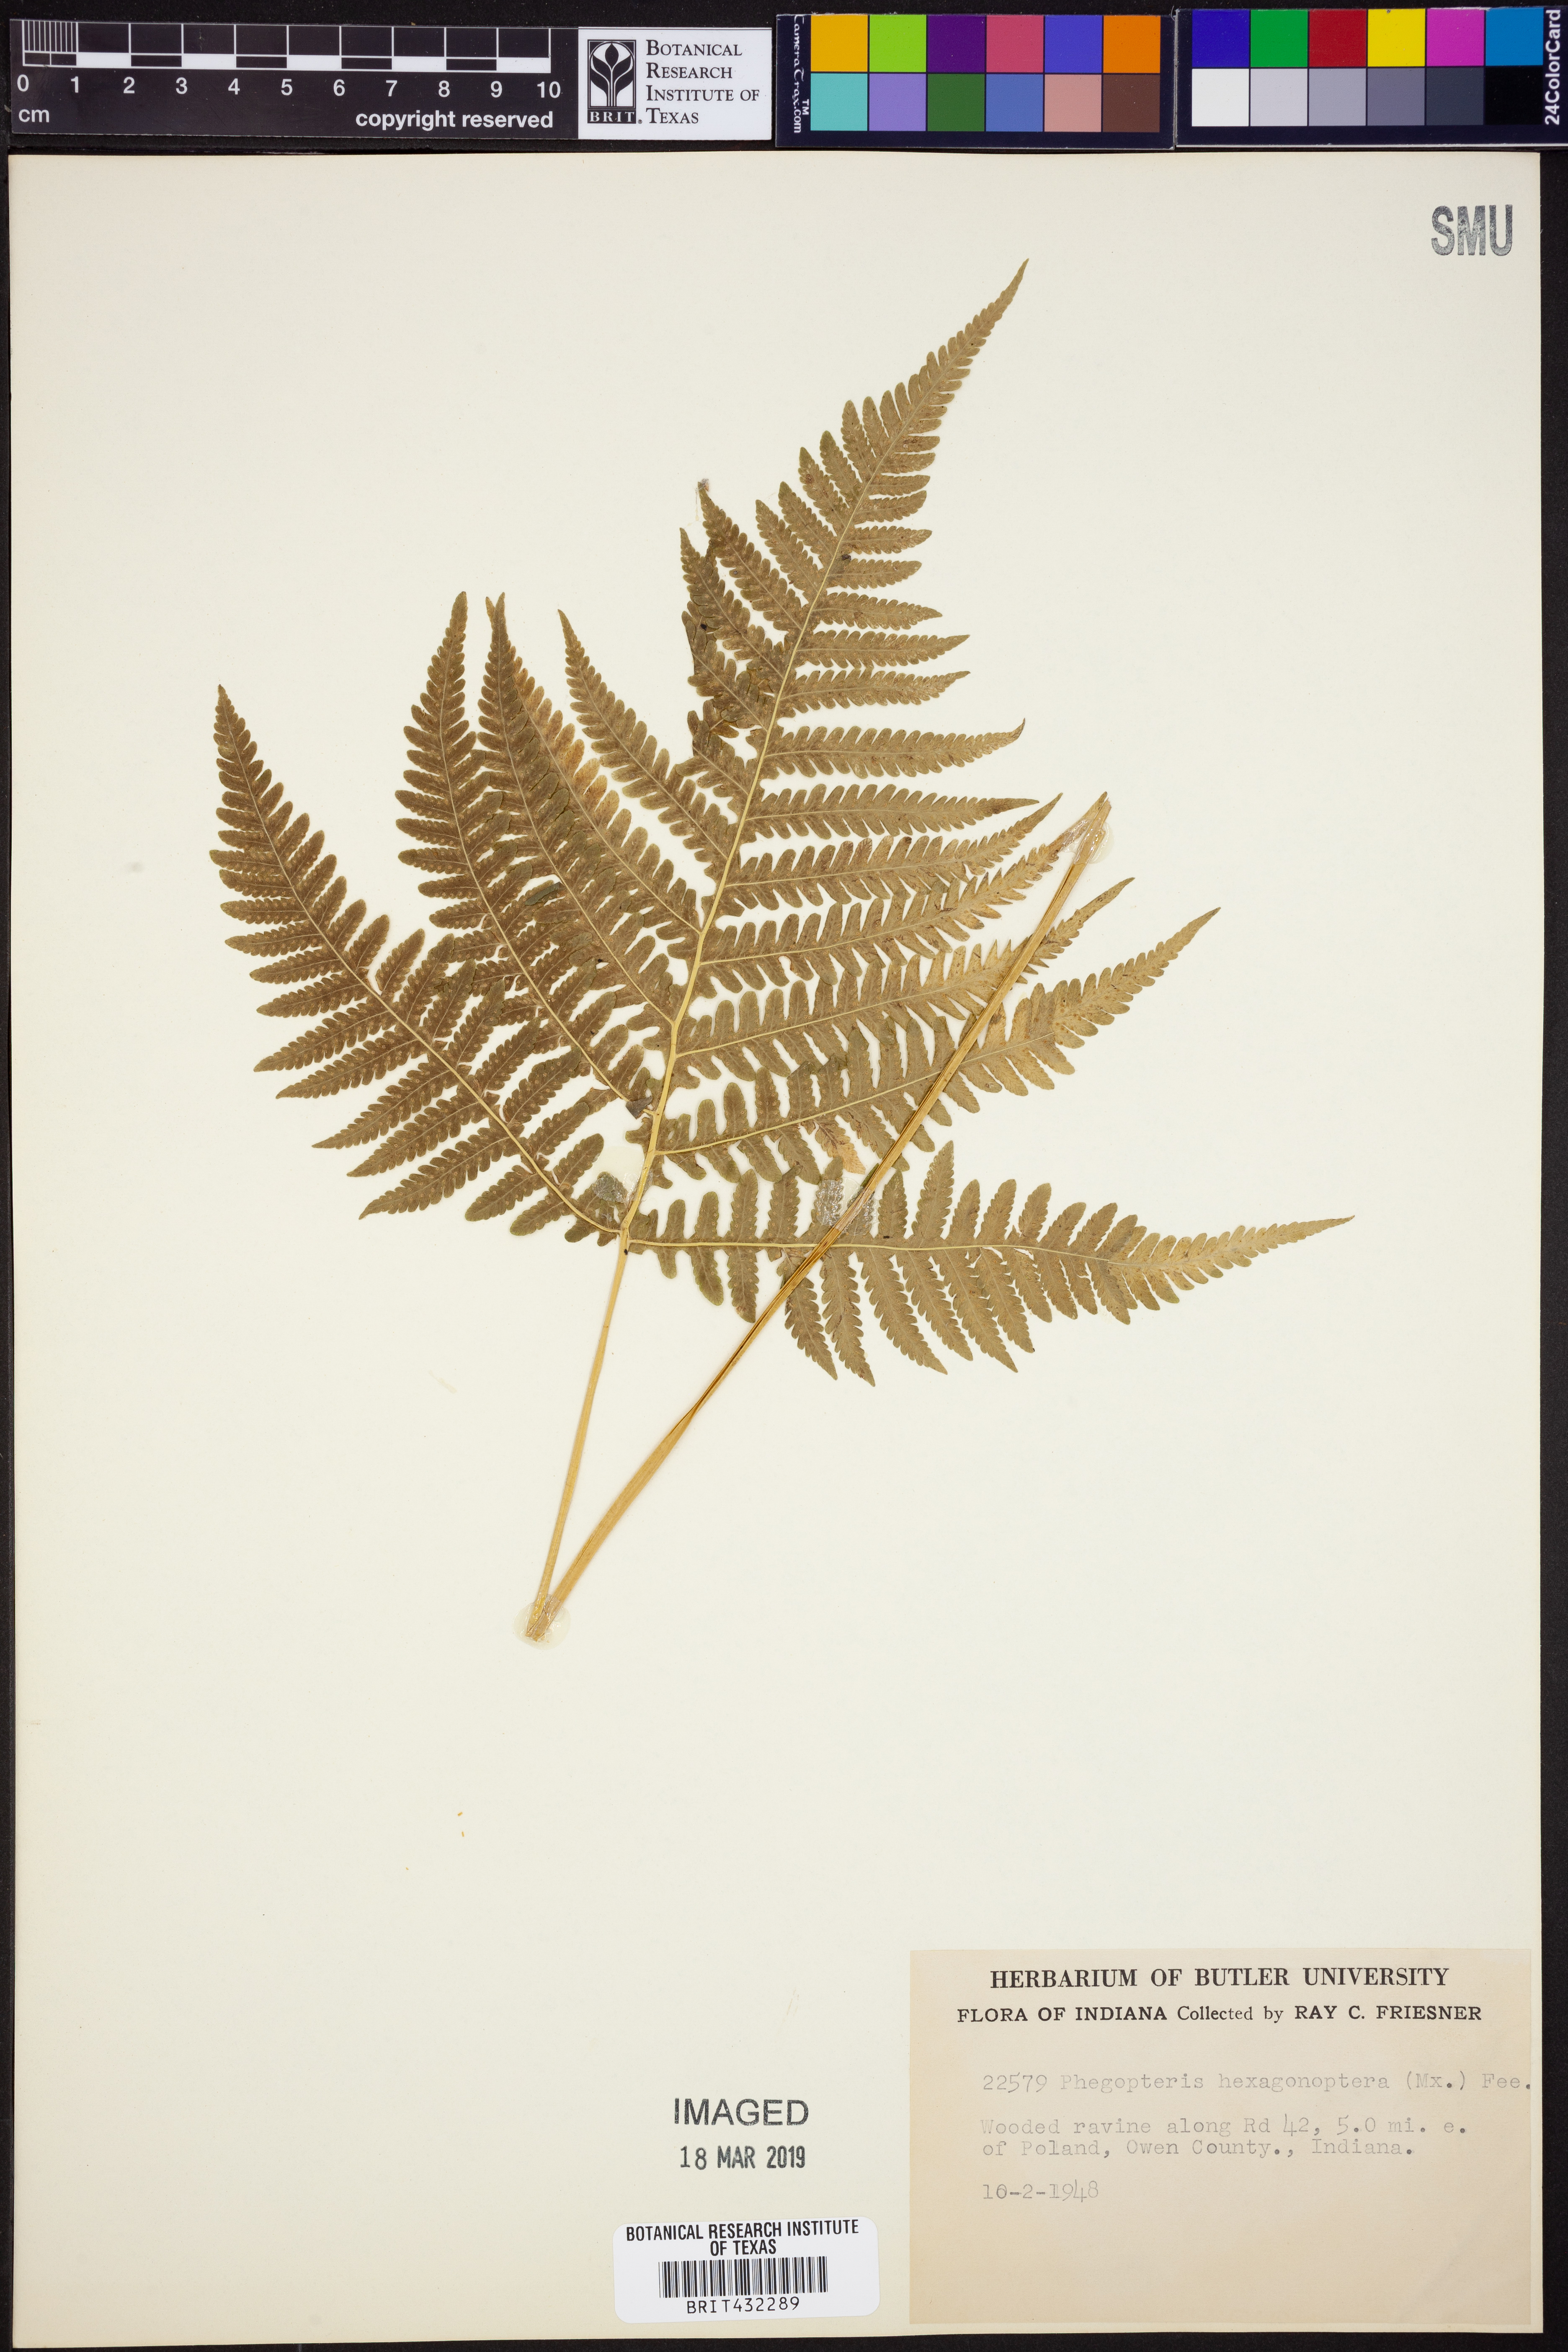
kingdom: Plantae
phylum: Tracheophyta
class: Polypodiopsida
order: Polypodiales
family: Thelypteridaceae
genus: Phegopteris
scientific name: Phegopteris hexagonoptera
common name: Broad beech fern
